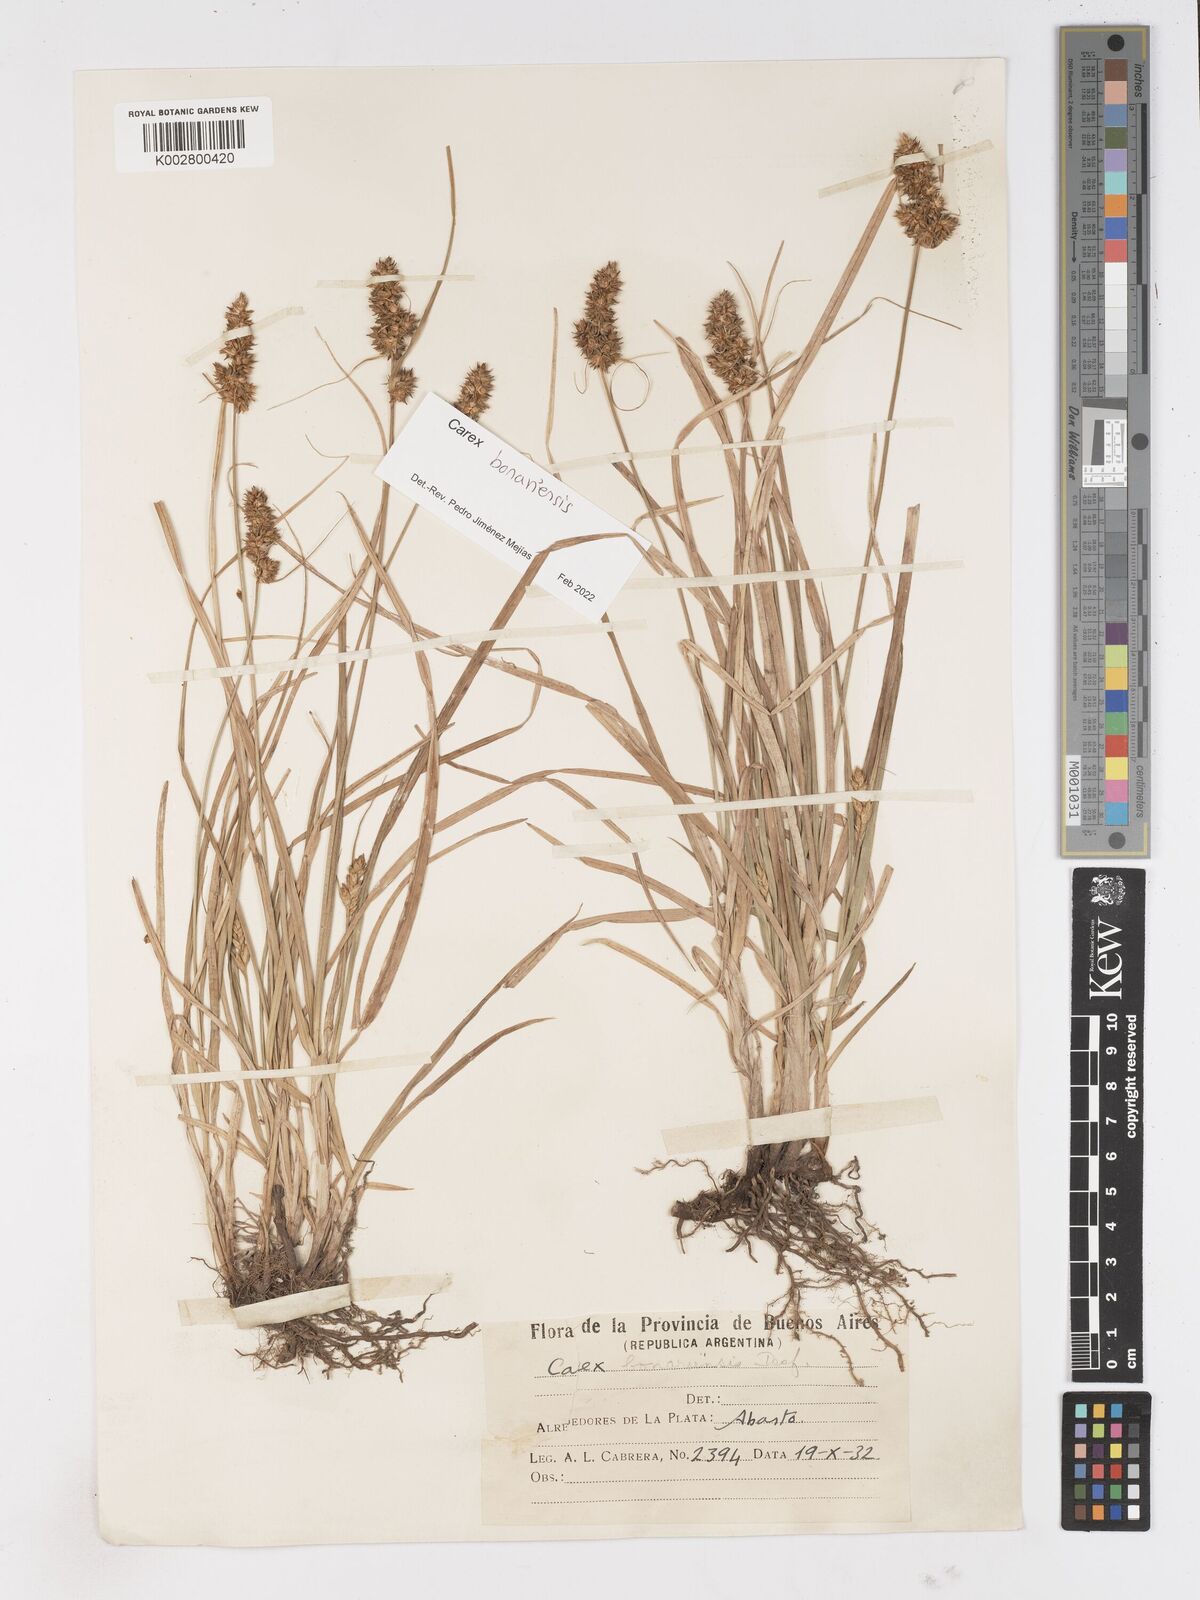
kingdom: Plantae
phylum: Tracheophyta
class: Liliopsida
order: Poales
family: Cyperaceae
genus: Carex
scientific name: Carex bonariensis
